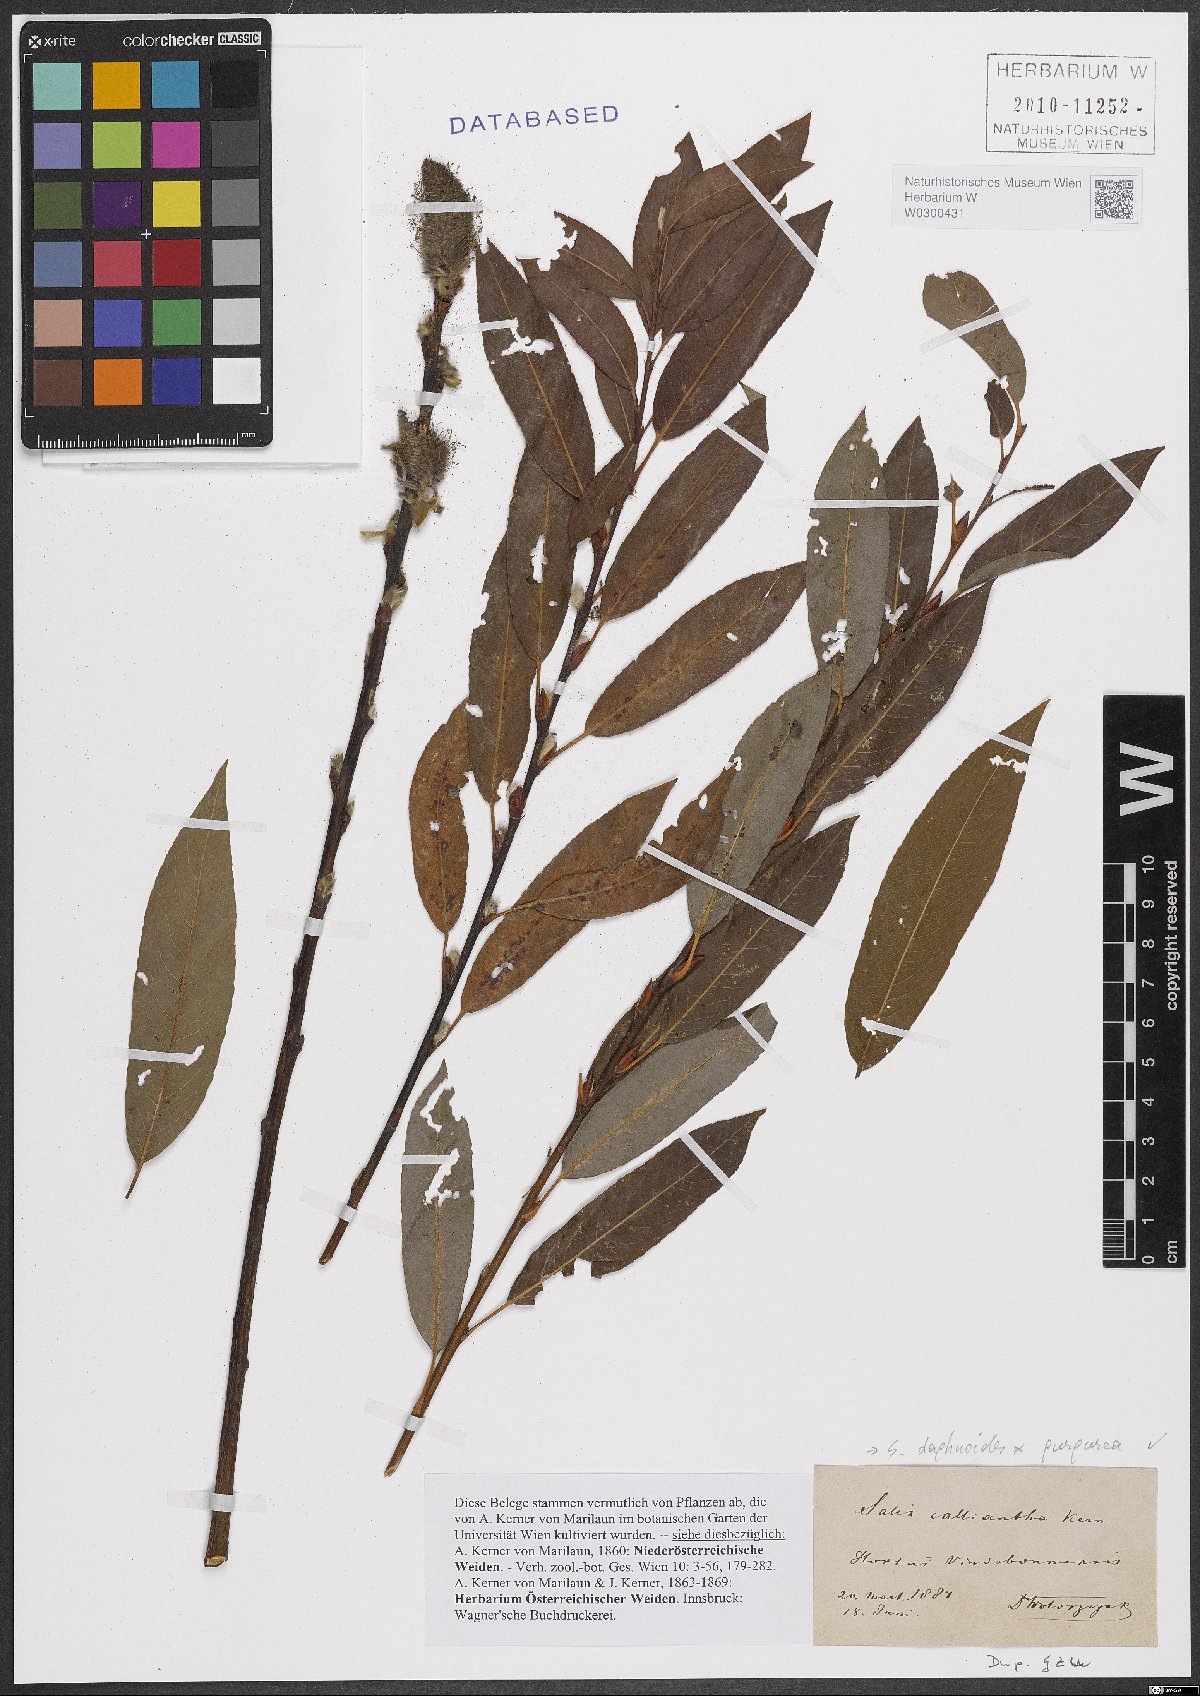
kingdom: Plantae
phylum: Tracheophyta
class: Magnoliopsida
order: Malpighiales
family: Salicaceae
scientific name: Salicaceae
